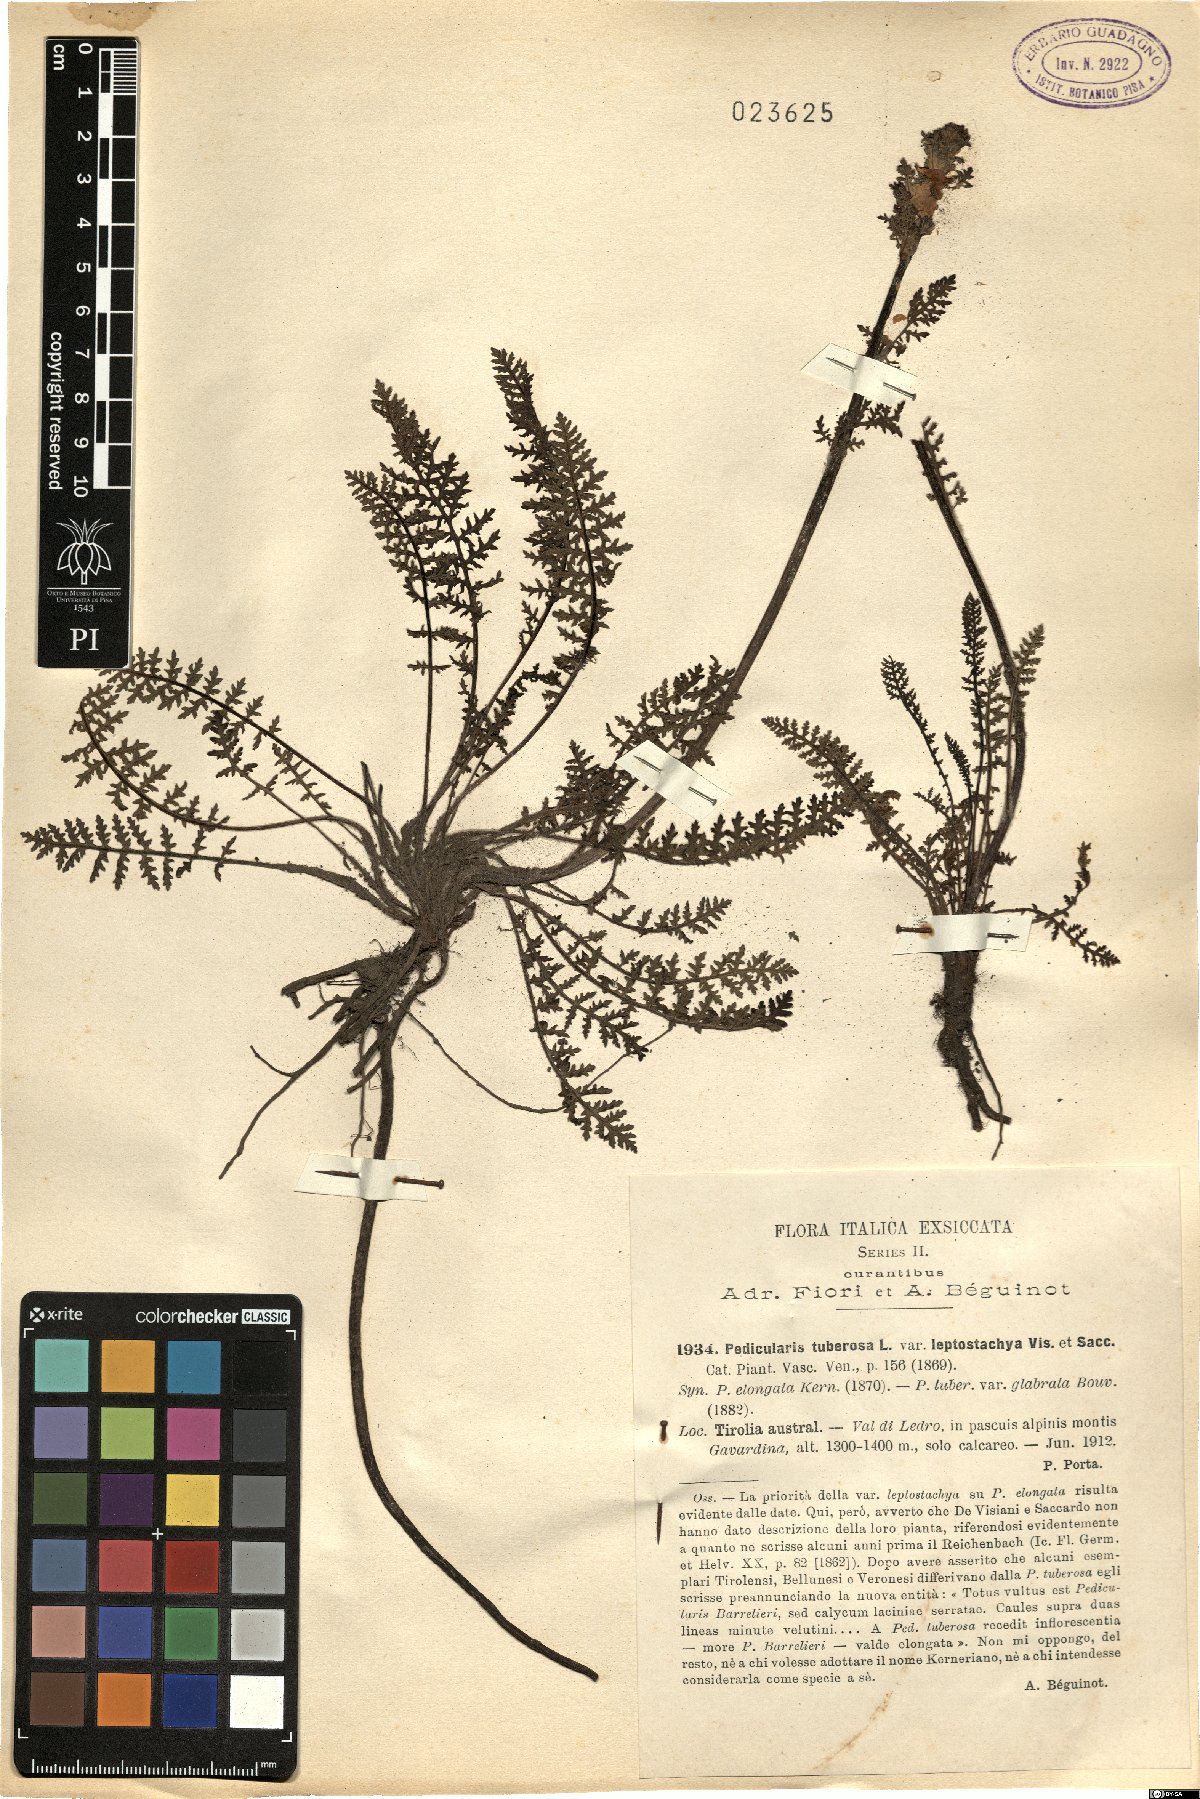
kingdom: Plantae
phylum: Tracheophyta
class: Magnoliopsida
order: Lamiales
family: Orobanchaceae
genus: Pedicularis
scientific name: Pedicularis tuberosa
